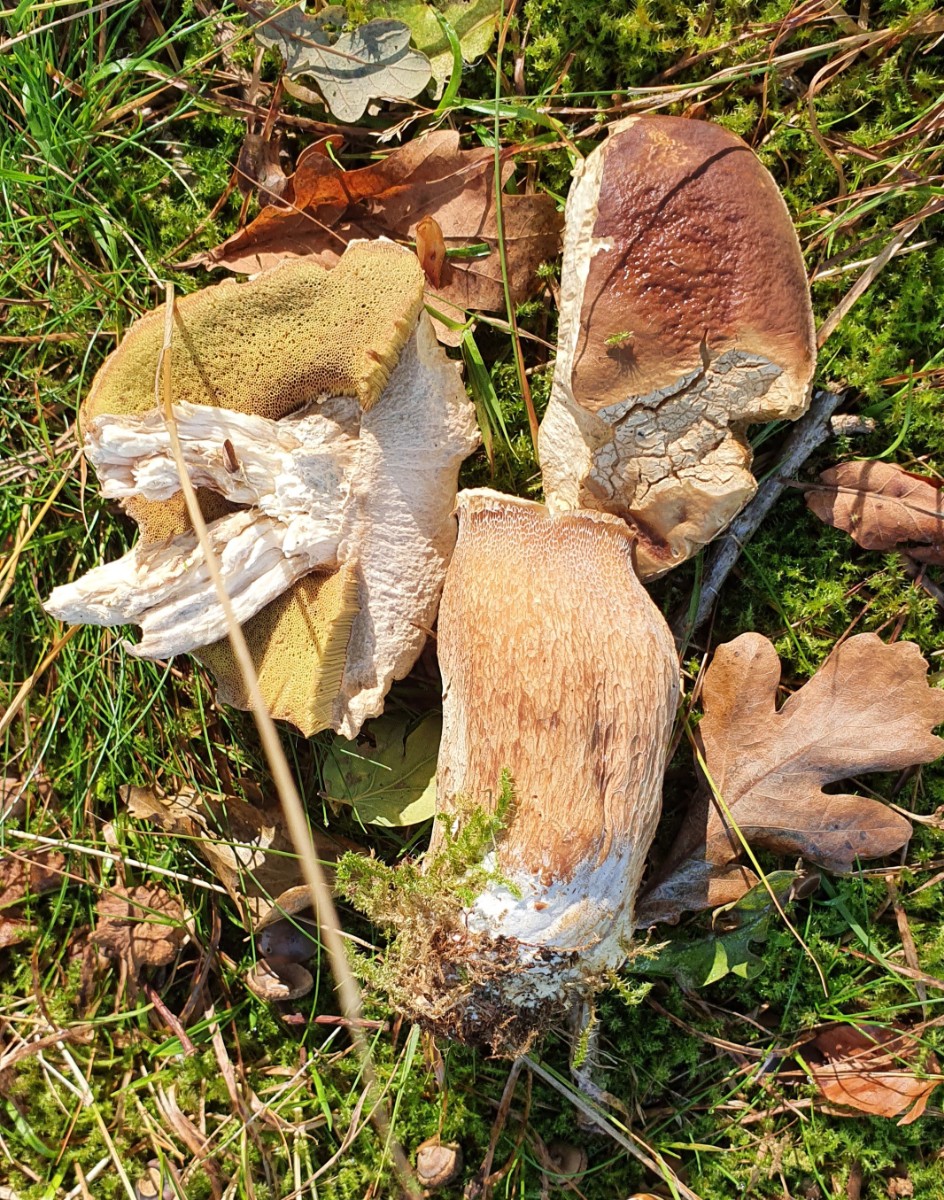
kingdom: Fungi
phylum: Basidiomycota
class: Agaricomycetes
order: Boletales
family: Boletaceae
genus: Boletus
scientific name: Boletus edulis
